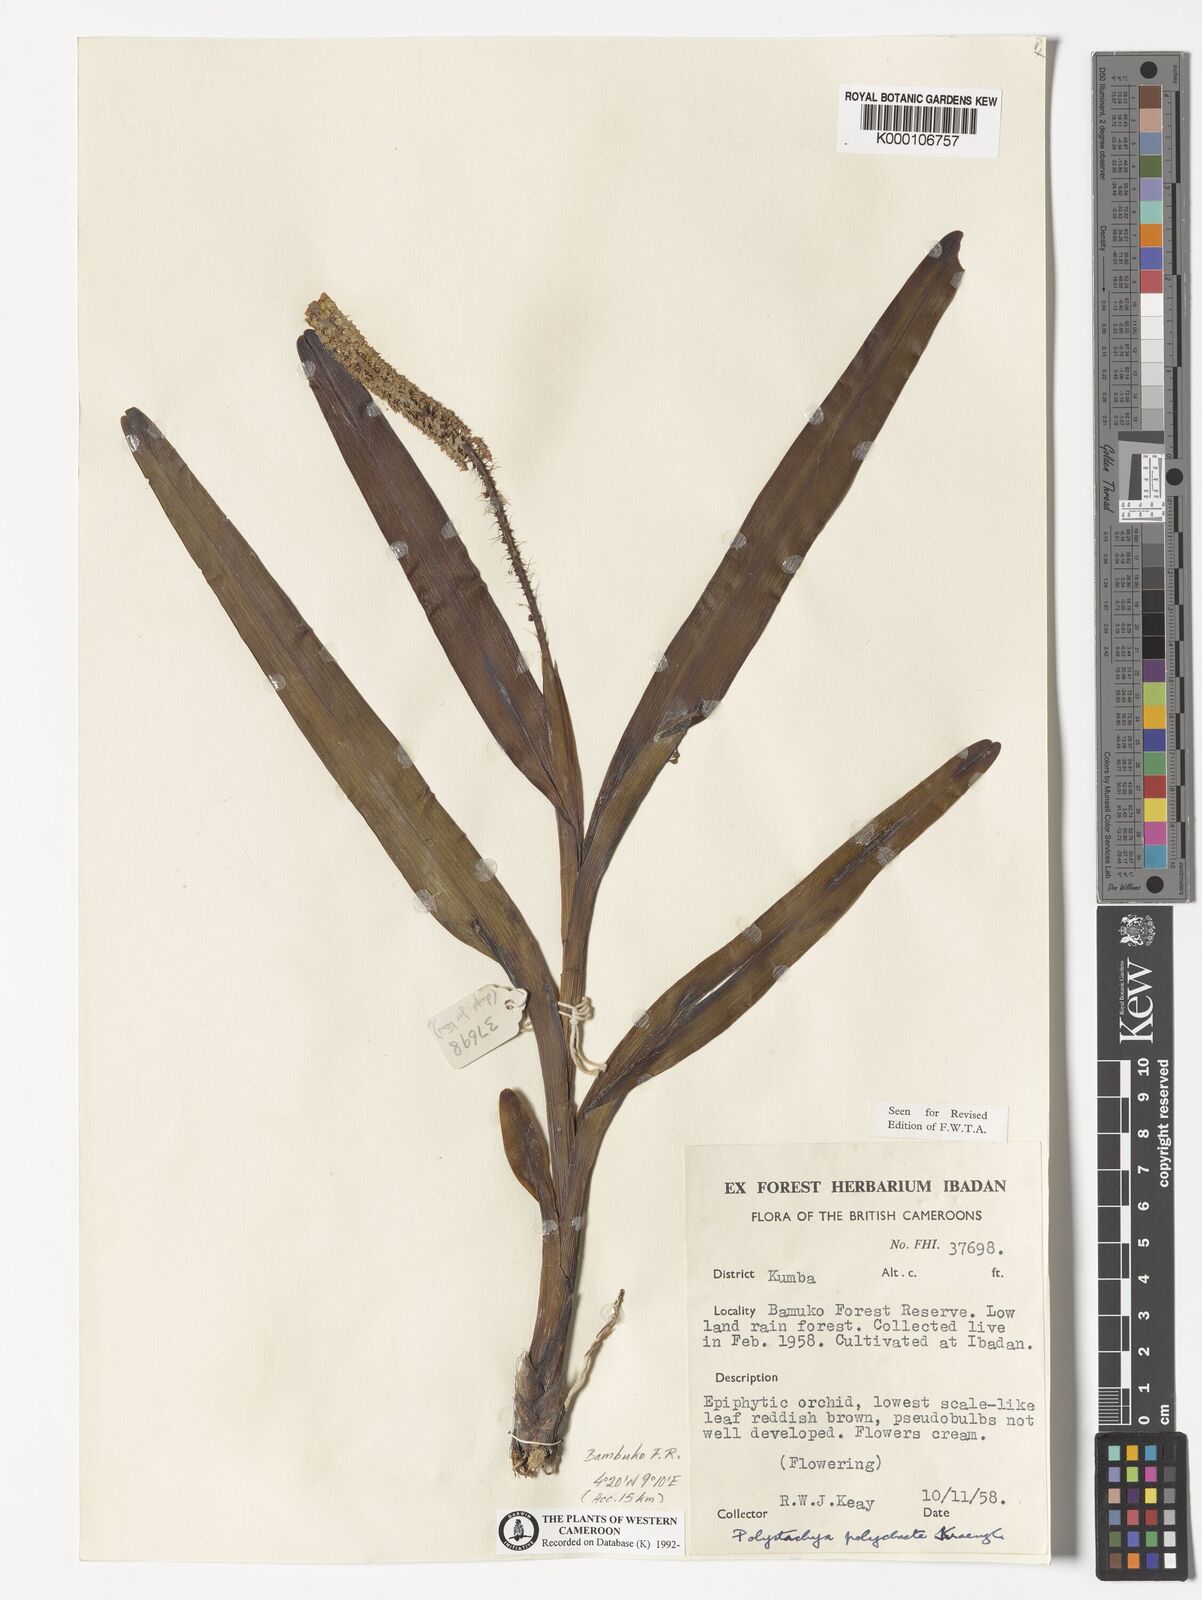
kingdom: Plantae
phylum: Tracheophyta
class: Liliopsida
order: Asparagales
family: Orchidaceae
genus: Polystachya
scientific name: Polystachya polychaete
